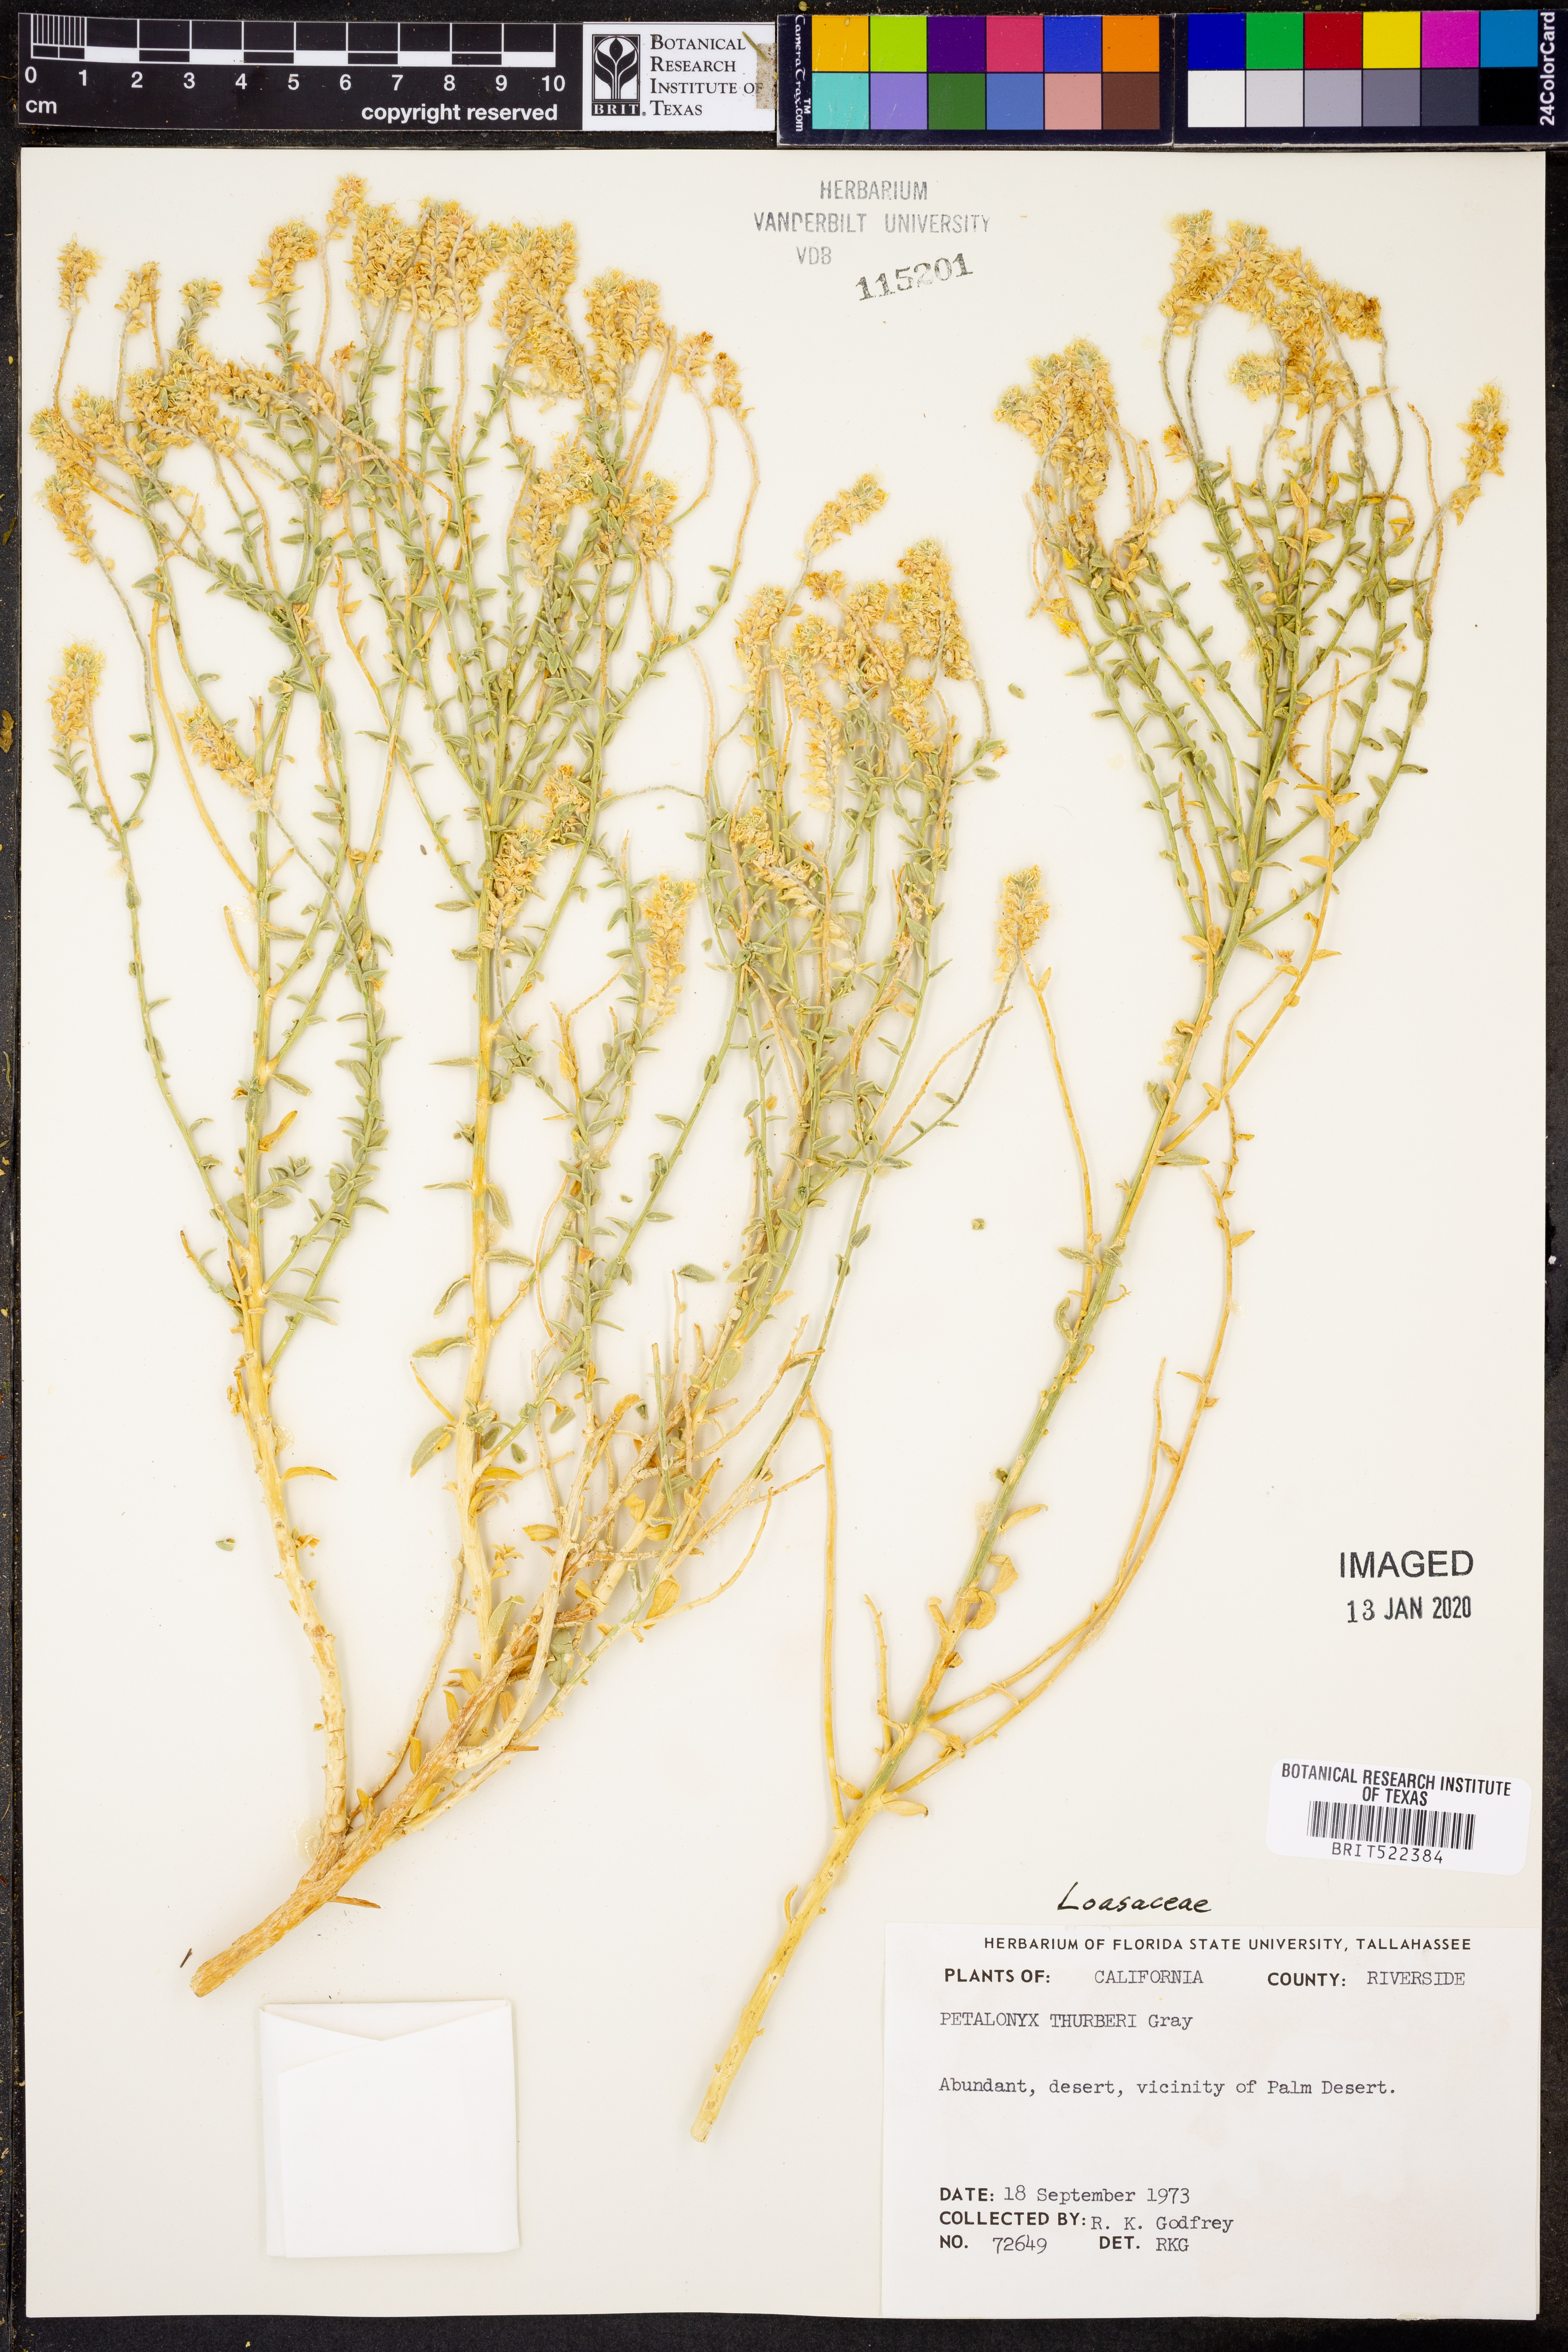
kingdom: Plantae
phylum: Tracheophyta
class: Magnoliopsida
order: Cornales
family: Loasaceae
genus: Petalonyx
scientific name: Petalonyx thurberi
